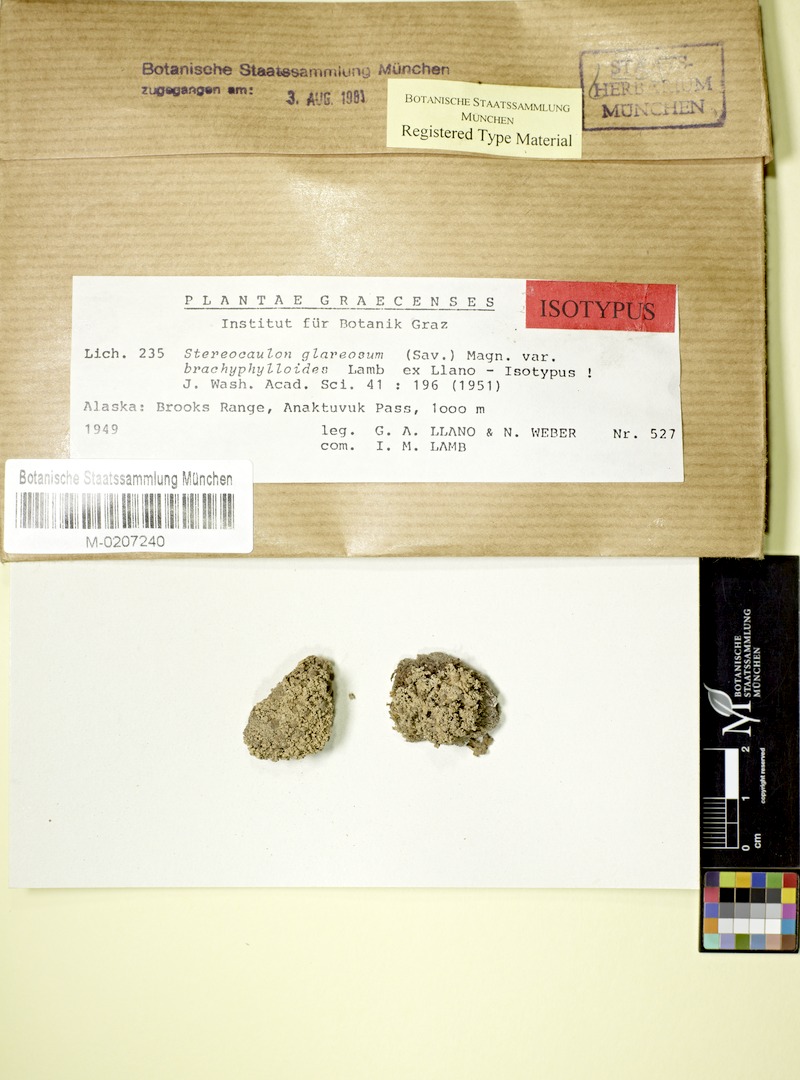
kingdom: Fungi
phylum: Ascomycota
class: Lecanoromycetes
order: Lecanorales
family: Stereocaulaceae
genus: Stereocaulon
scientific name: Stereocaulon glareosum
